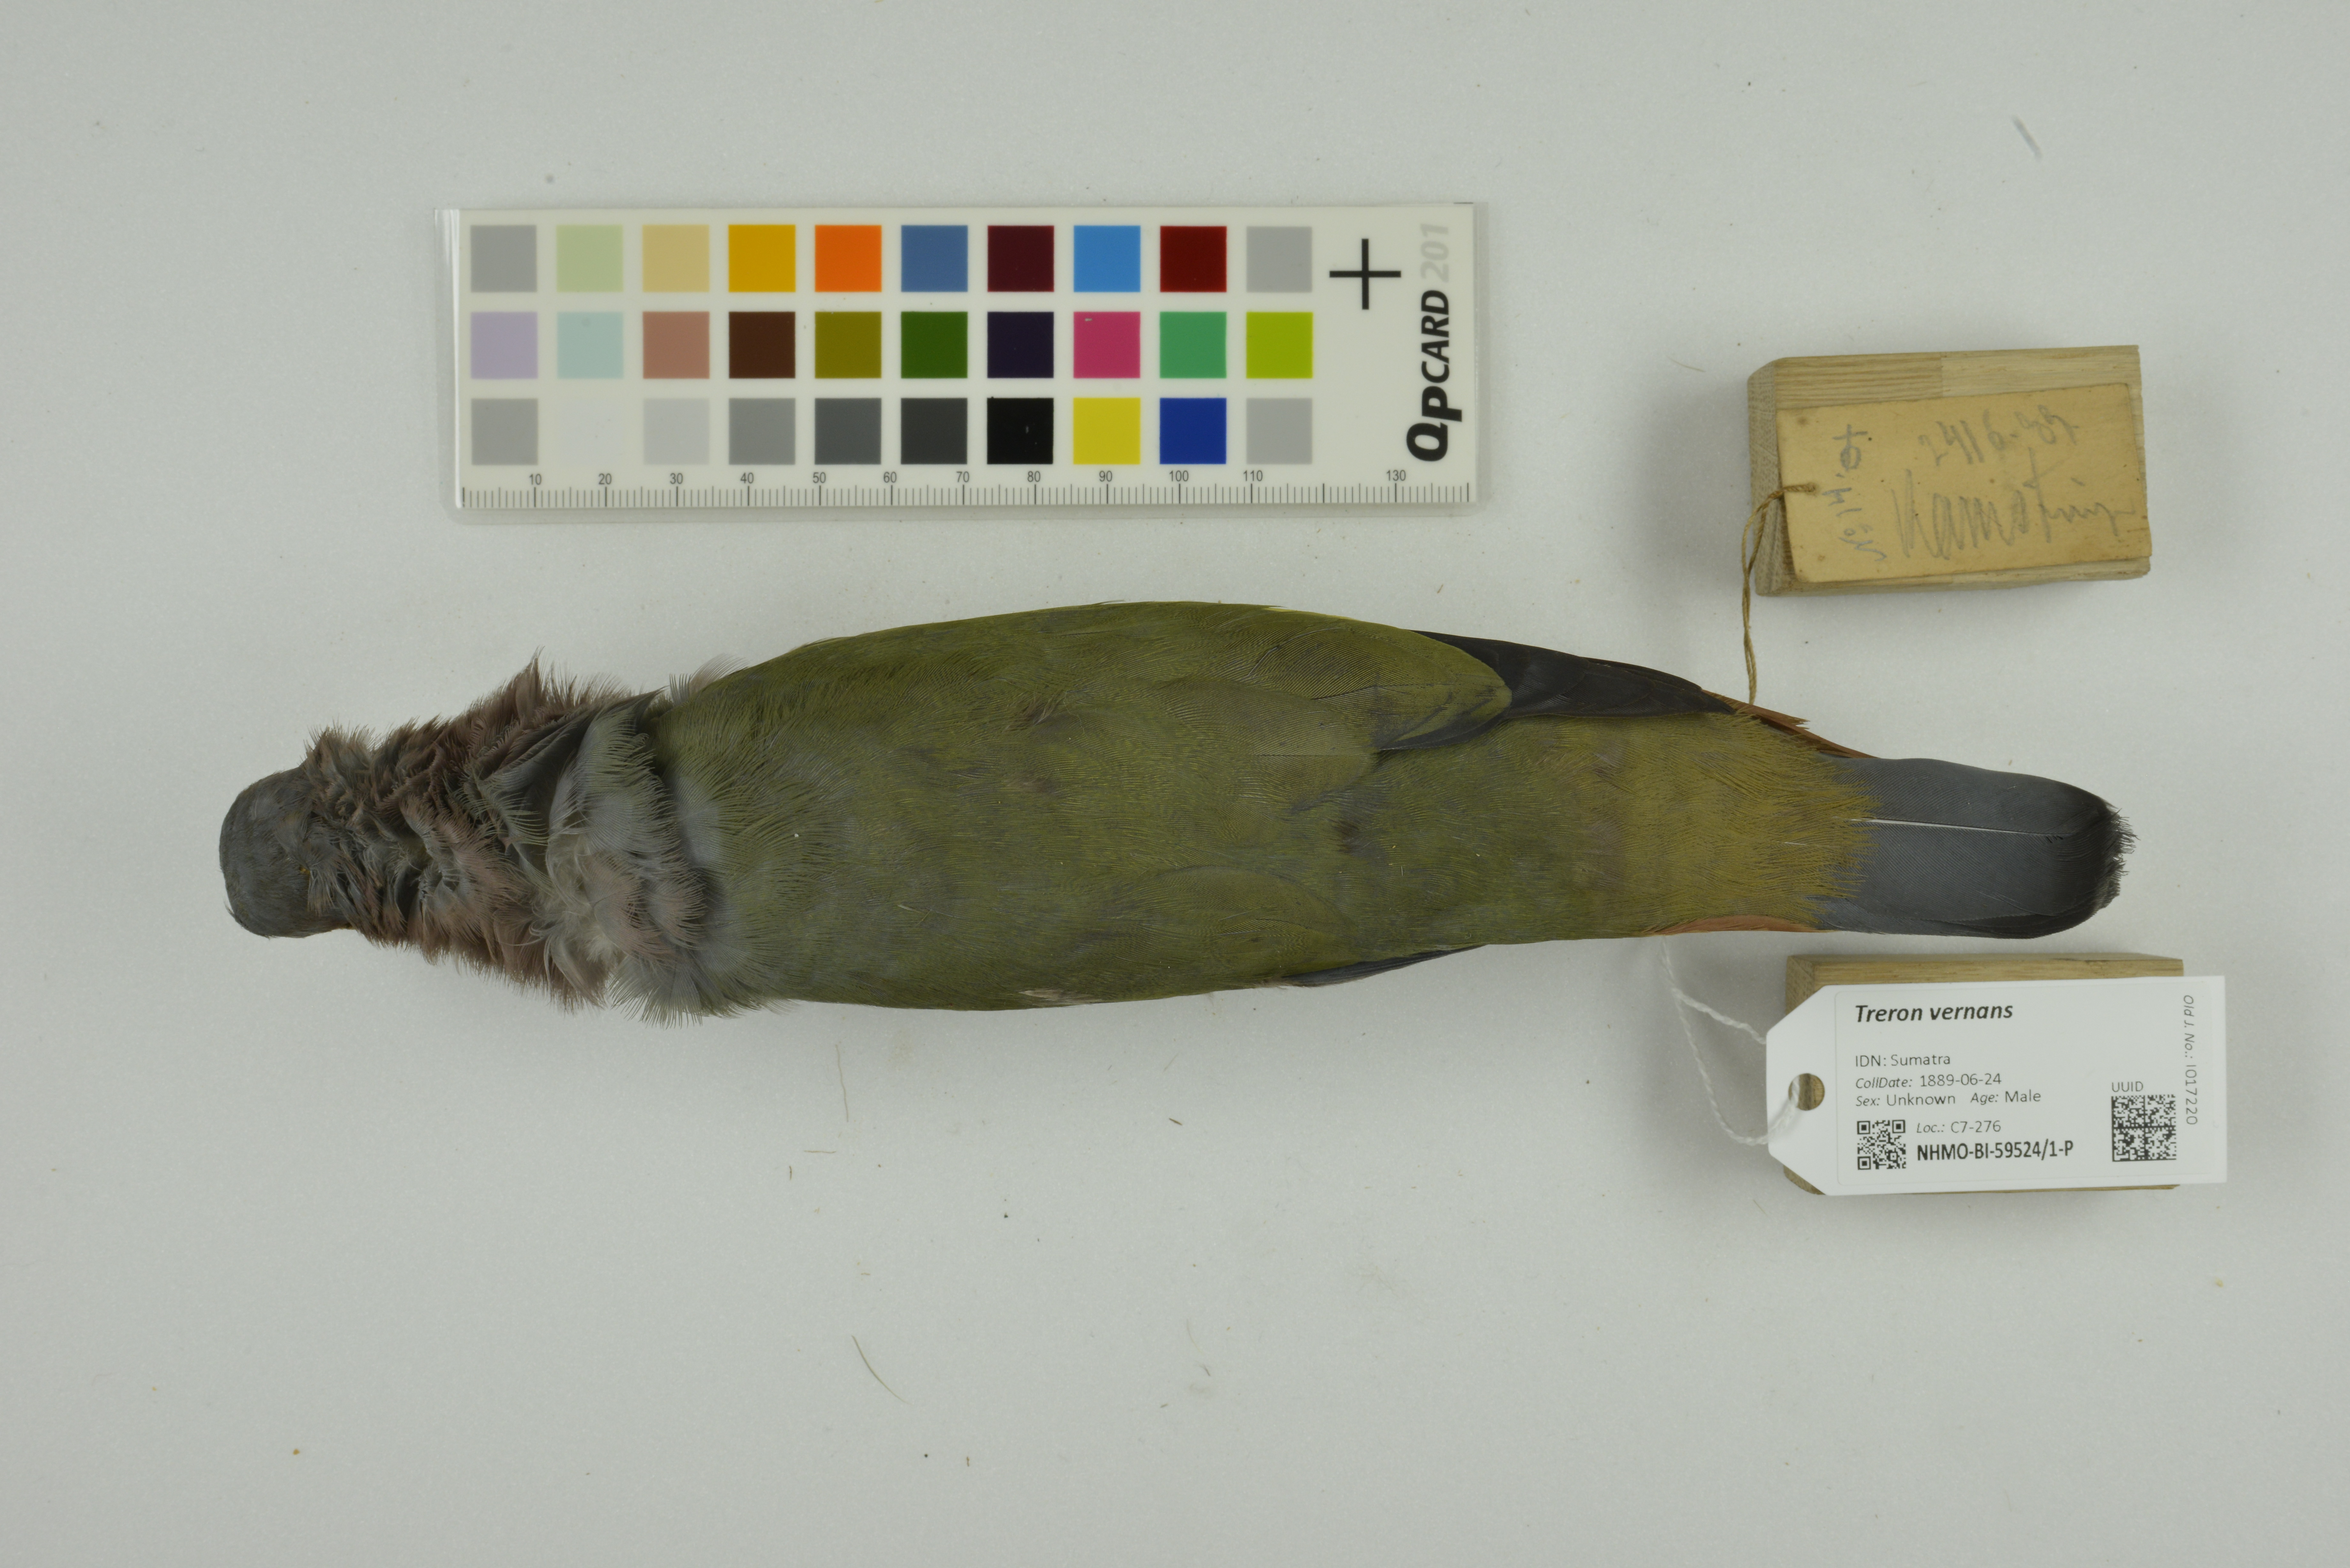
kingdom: Animalia
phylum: Chordata
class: Aves
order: Columbiformes
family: Columbidae
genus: Treron
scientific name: Treron vernans
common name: Pink-necked green pigeon
